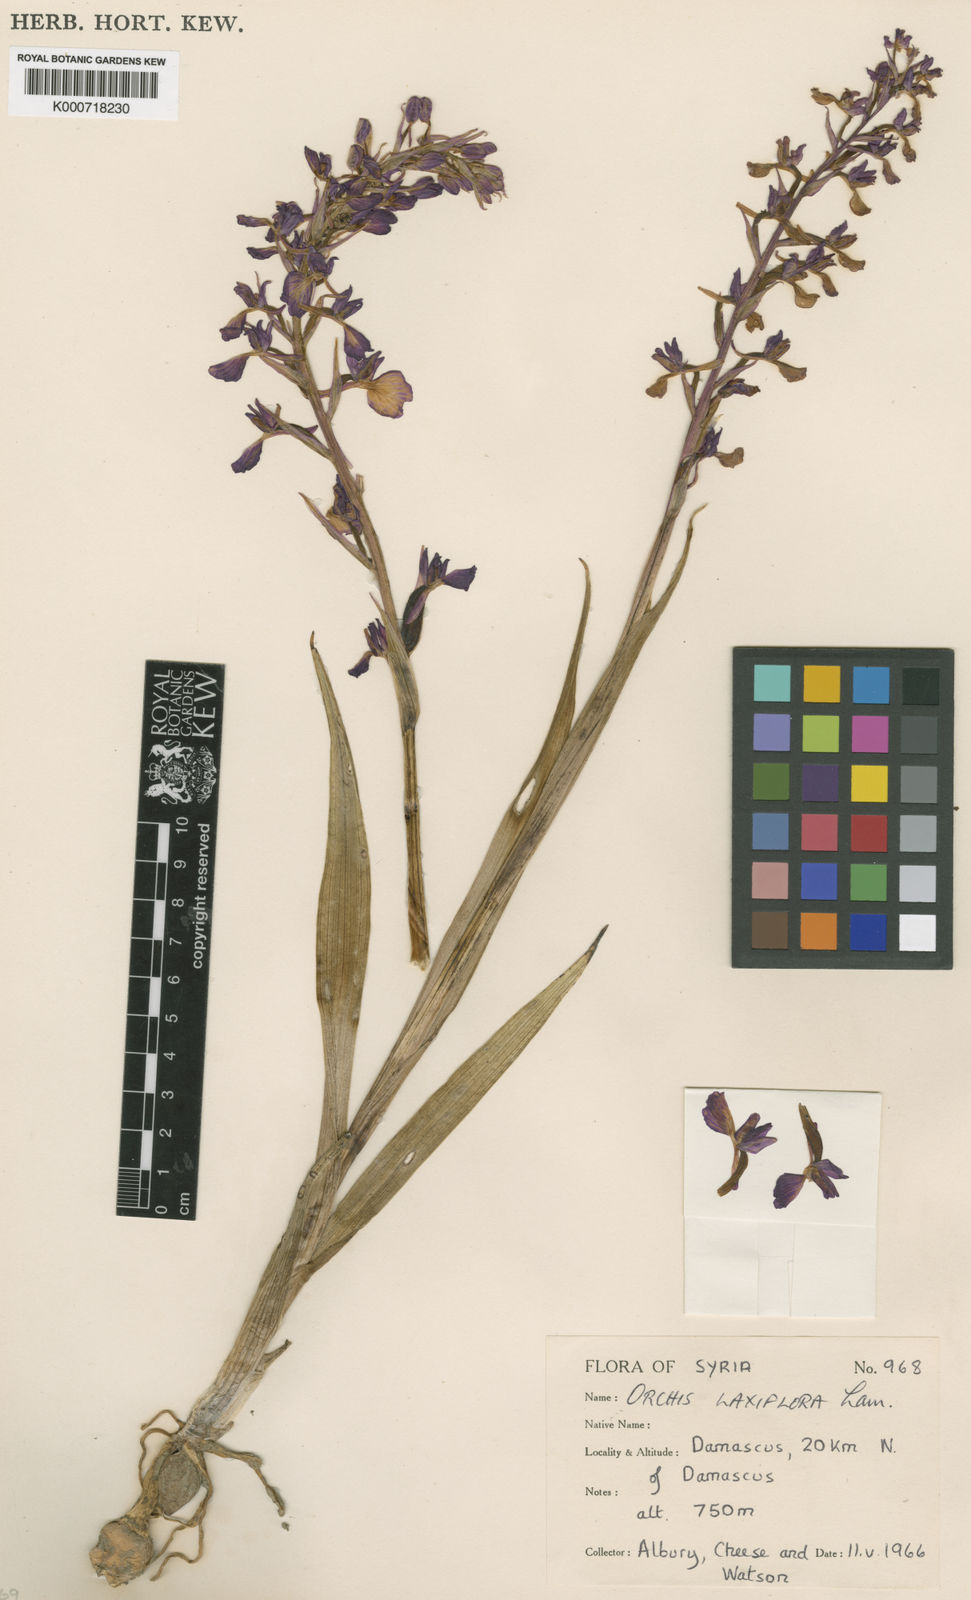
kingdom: Plantae
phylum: Tracheophyta
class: Liliopsida
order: Asparagales
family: Orchidaceae
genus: Anacamptis
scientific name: Anacamptis palustris
